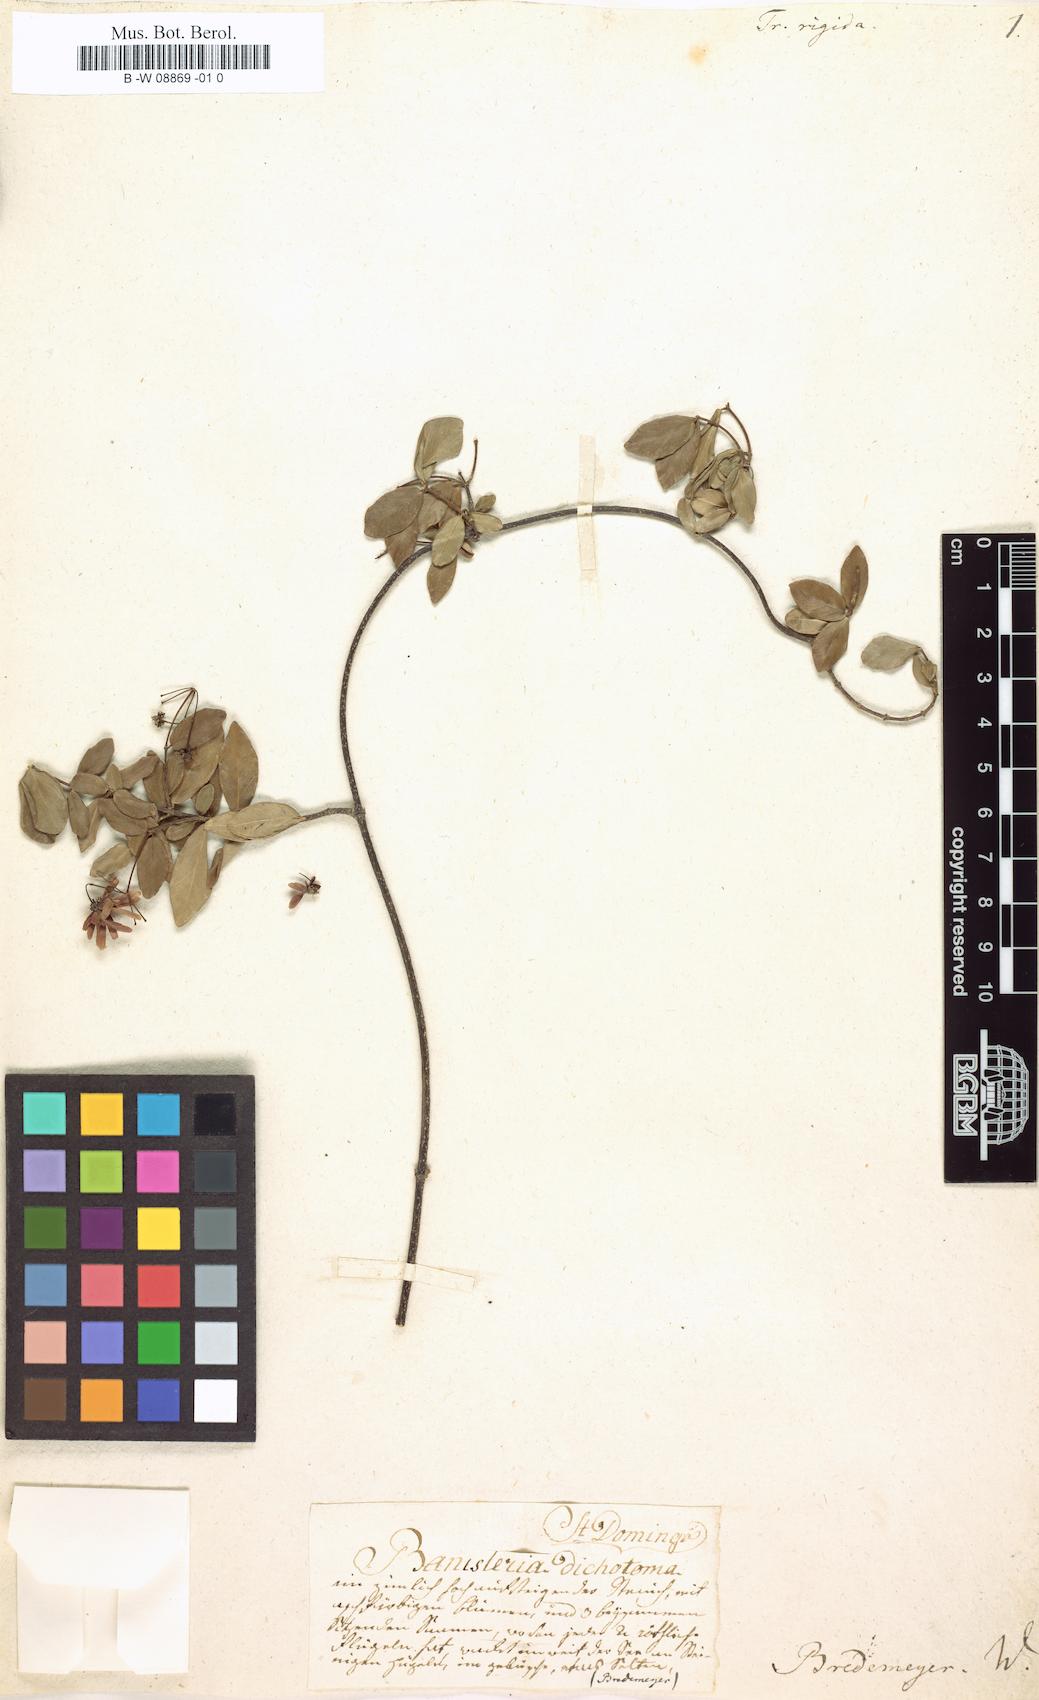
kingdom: Plantae
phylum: Tracheophyta
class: Magnoliopsida
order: Malpighiales
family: Malpighiaceae
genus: Mascagnia
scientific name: Mascagnia adamsii
